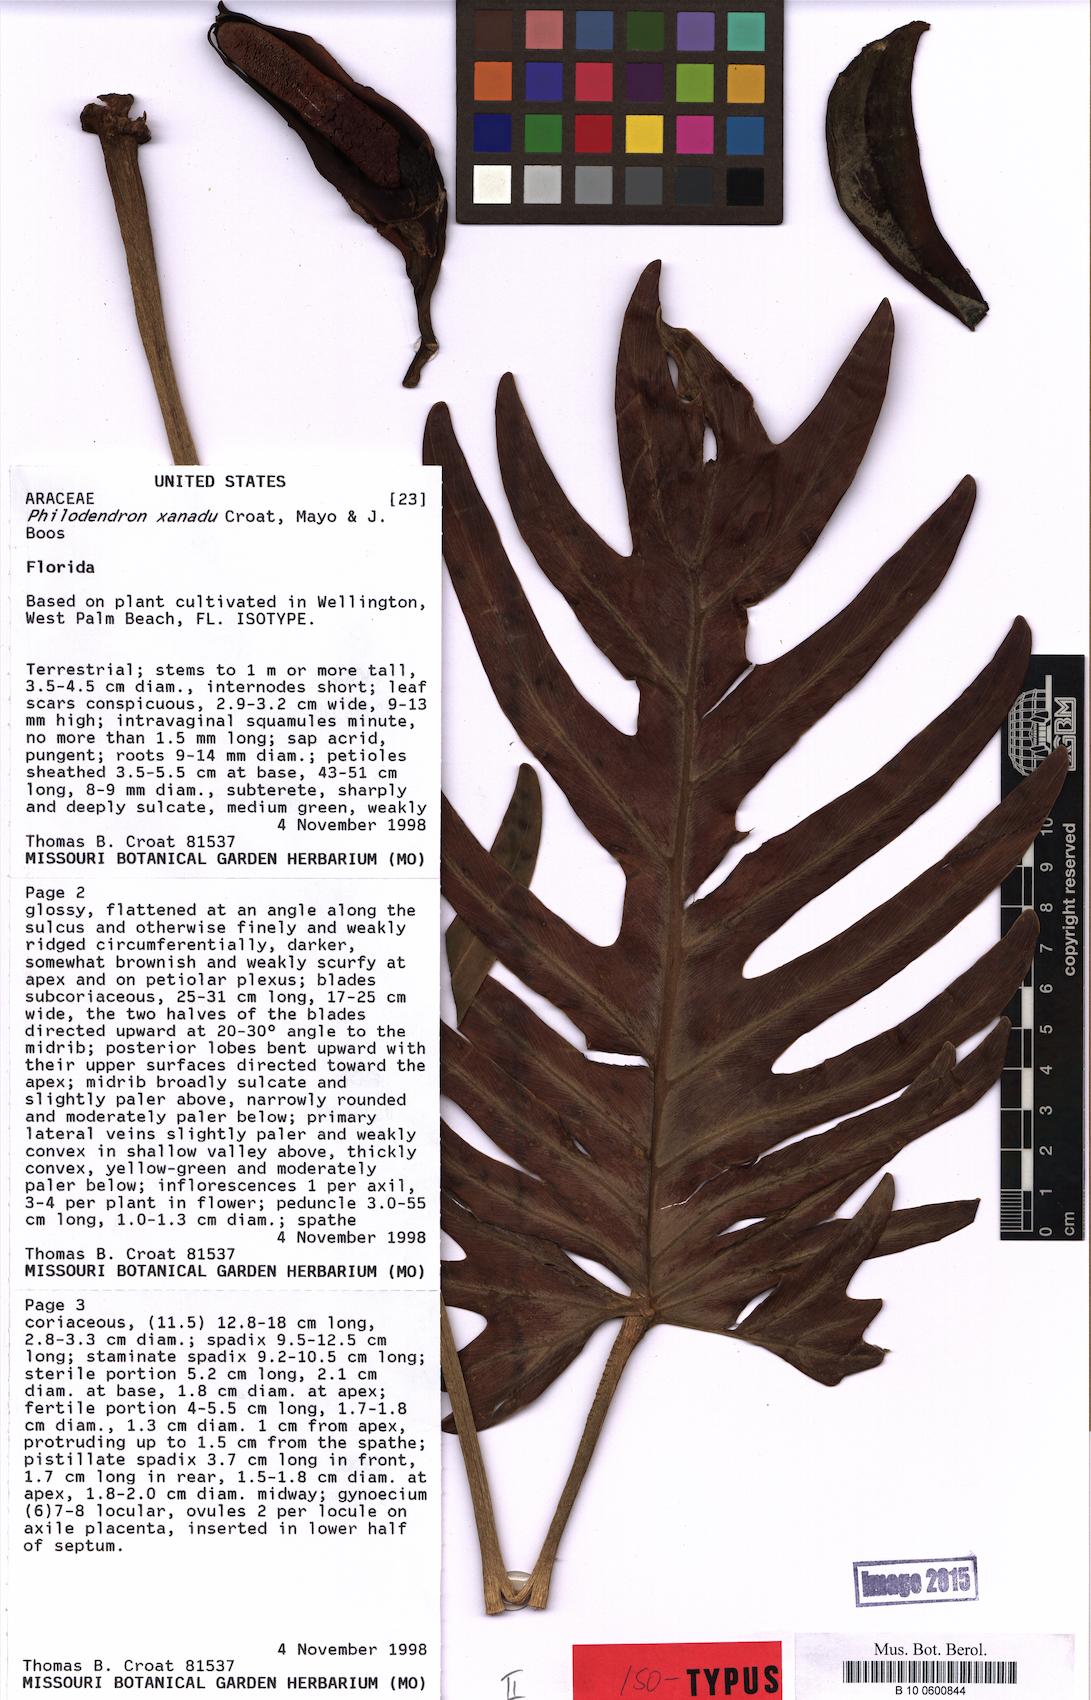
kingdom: Plantae
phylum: Tracheophyta
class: Liliopsida
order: Alismatales
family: Araceae
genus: Thaumatophyllum
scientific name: Thaumatophyllum xanadu
